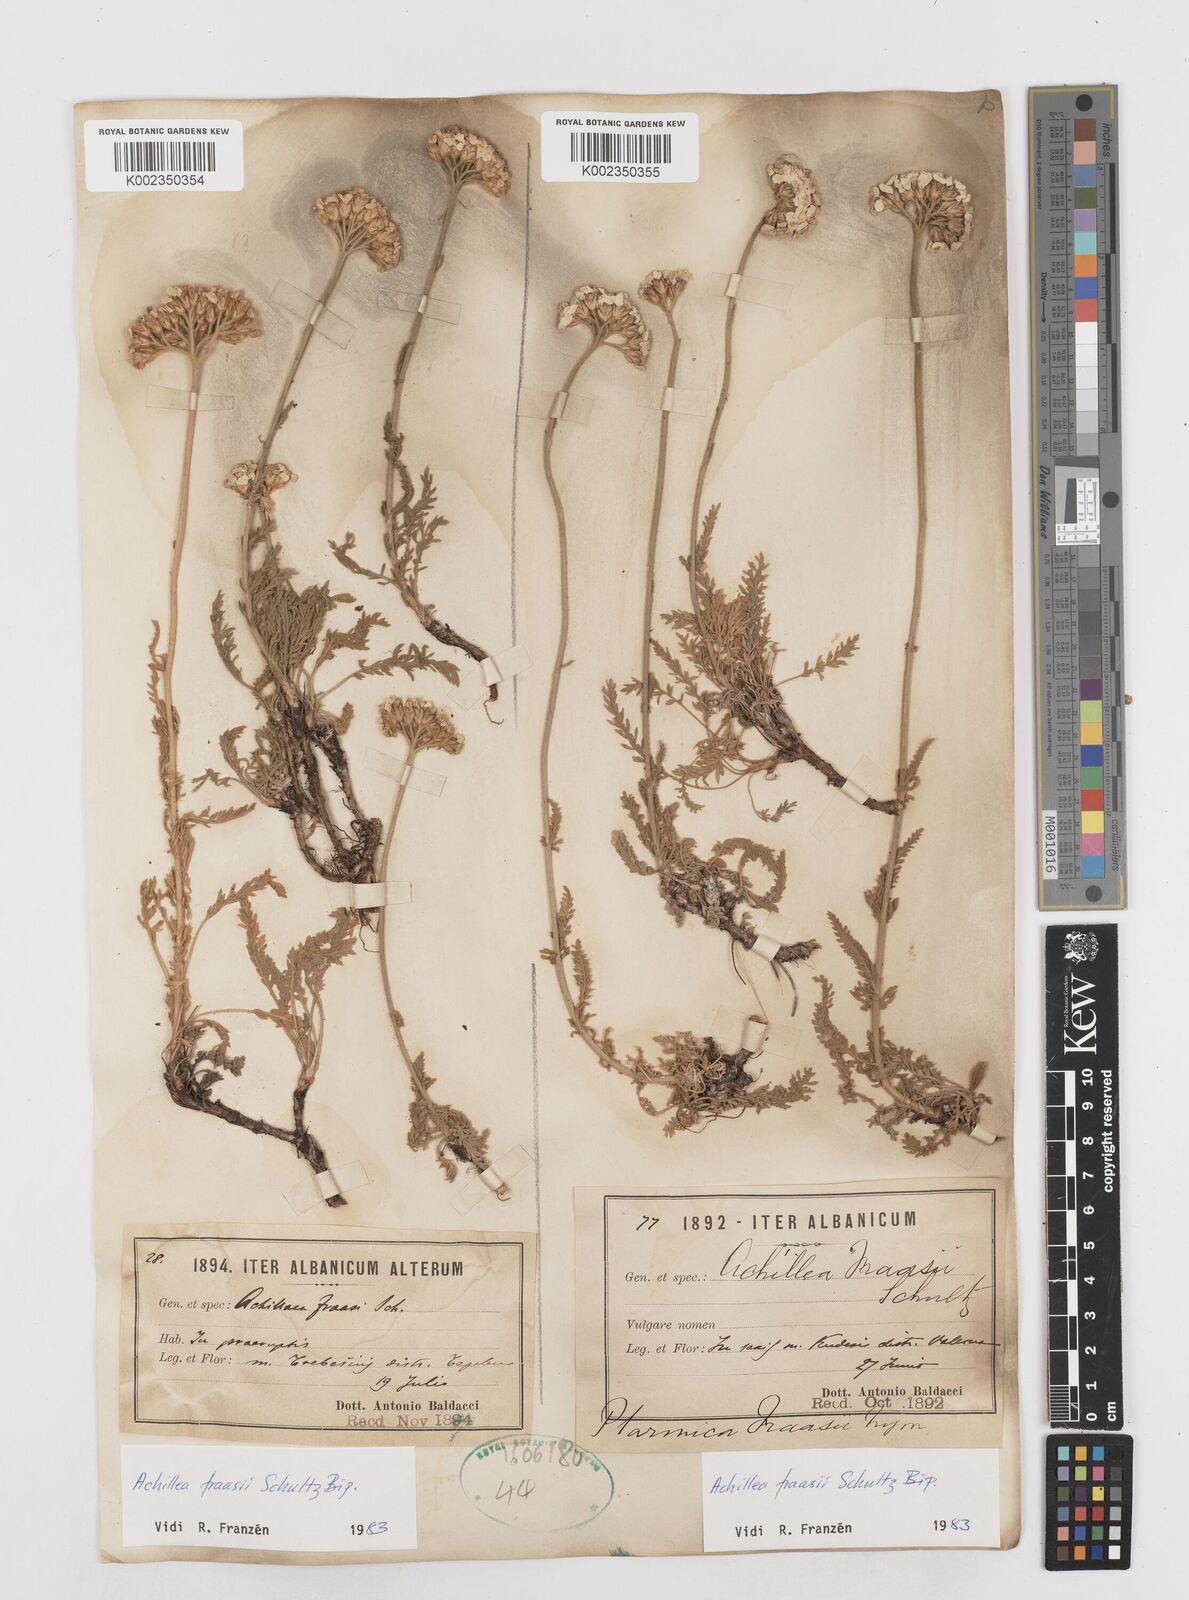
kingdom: Plantae
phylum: Tracheophyta
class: Magnoliopsida
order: Asterales
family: Asteraceae
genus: Achillea
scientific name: Achillea fraasii
